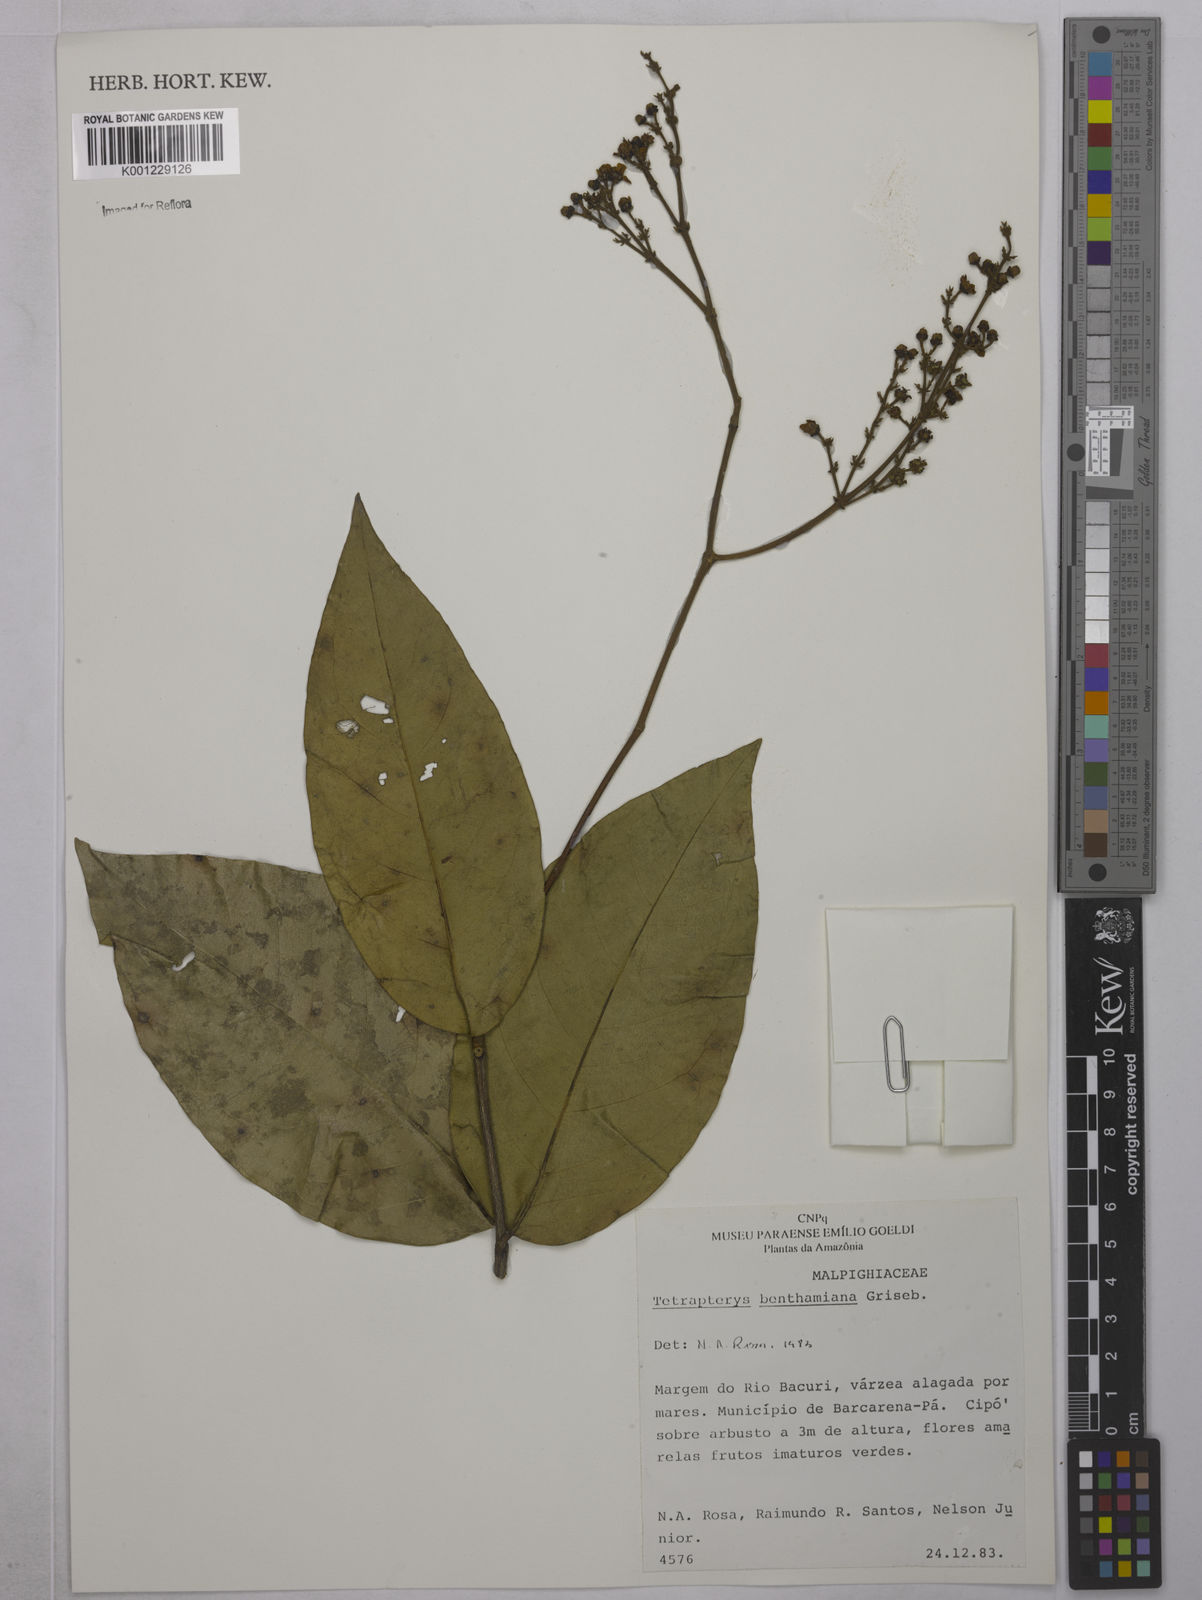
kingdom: Plantae
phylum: Tracheophyta
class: Magnoliopsida
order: Malpighiales
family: Malpighiaceae
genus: Niedenzuella
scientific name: Niedenzuella stannea
